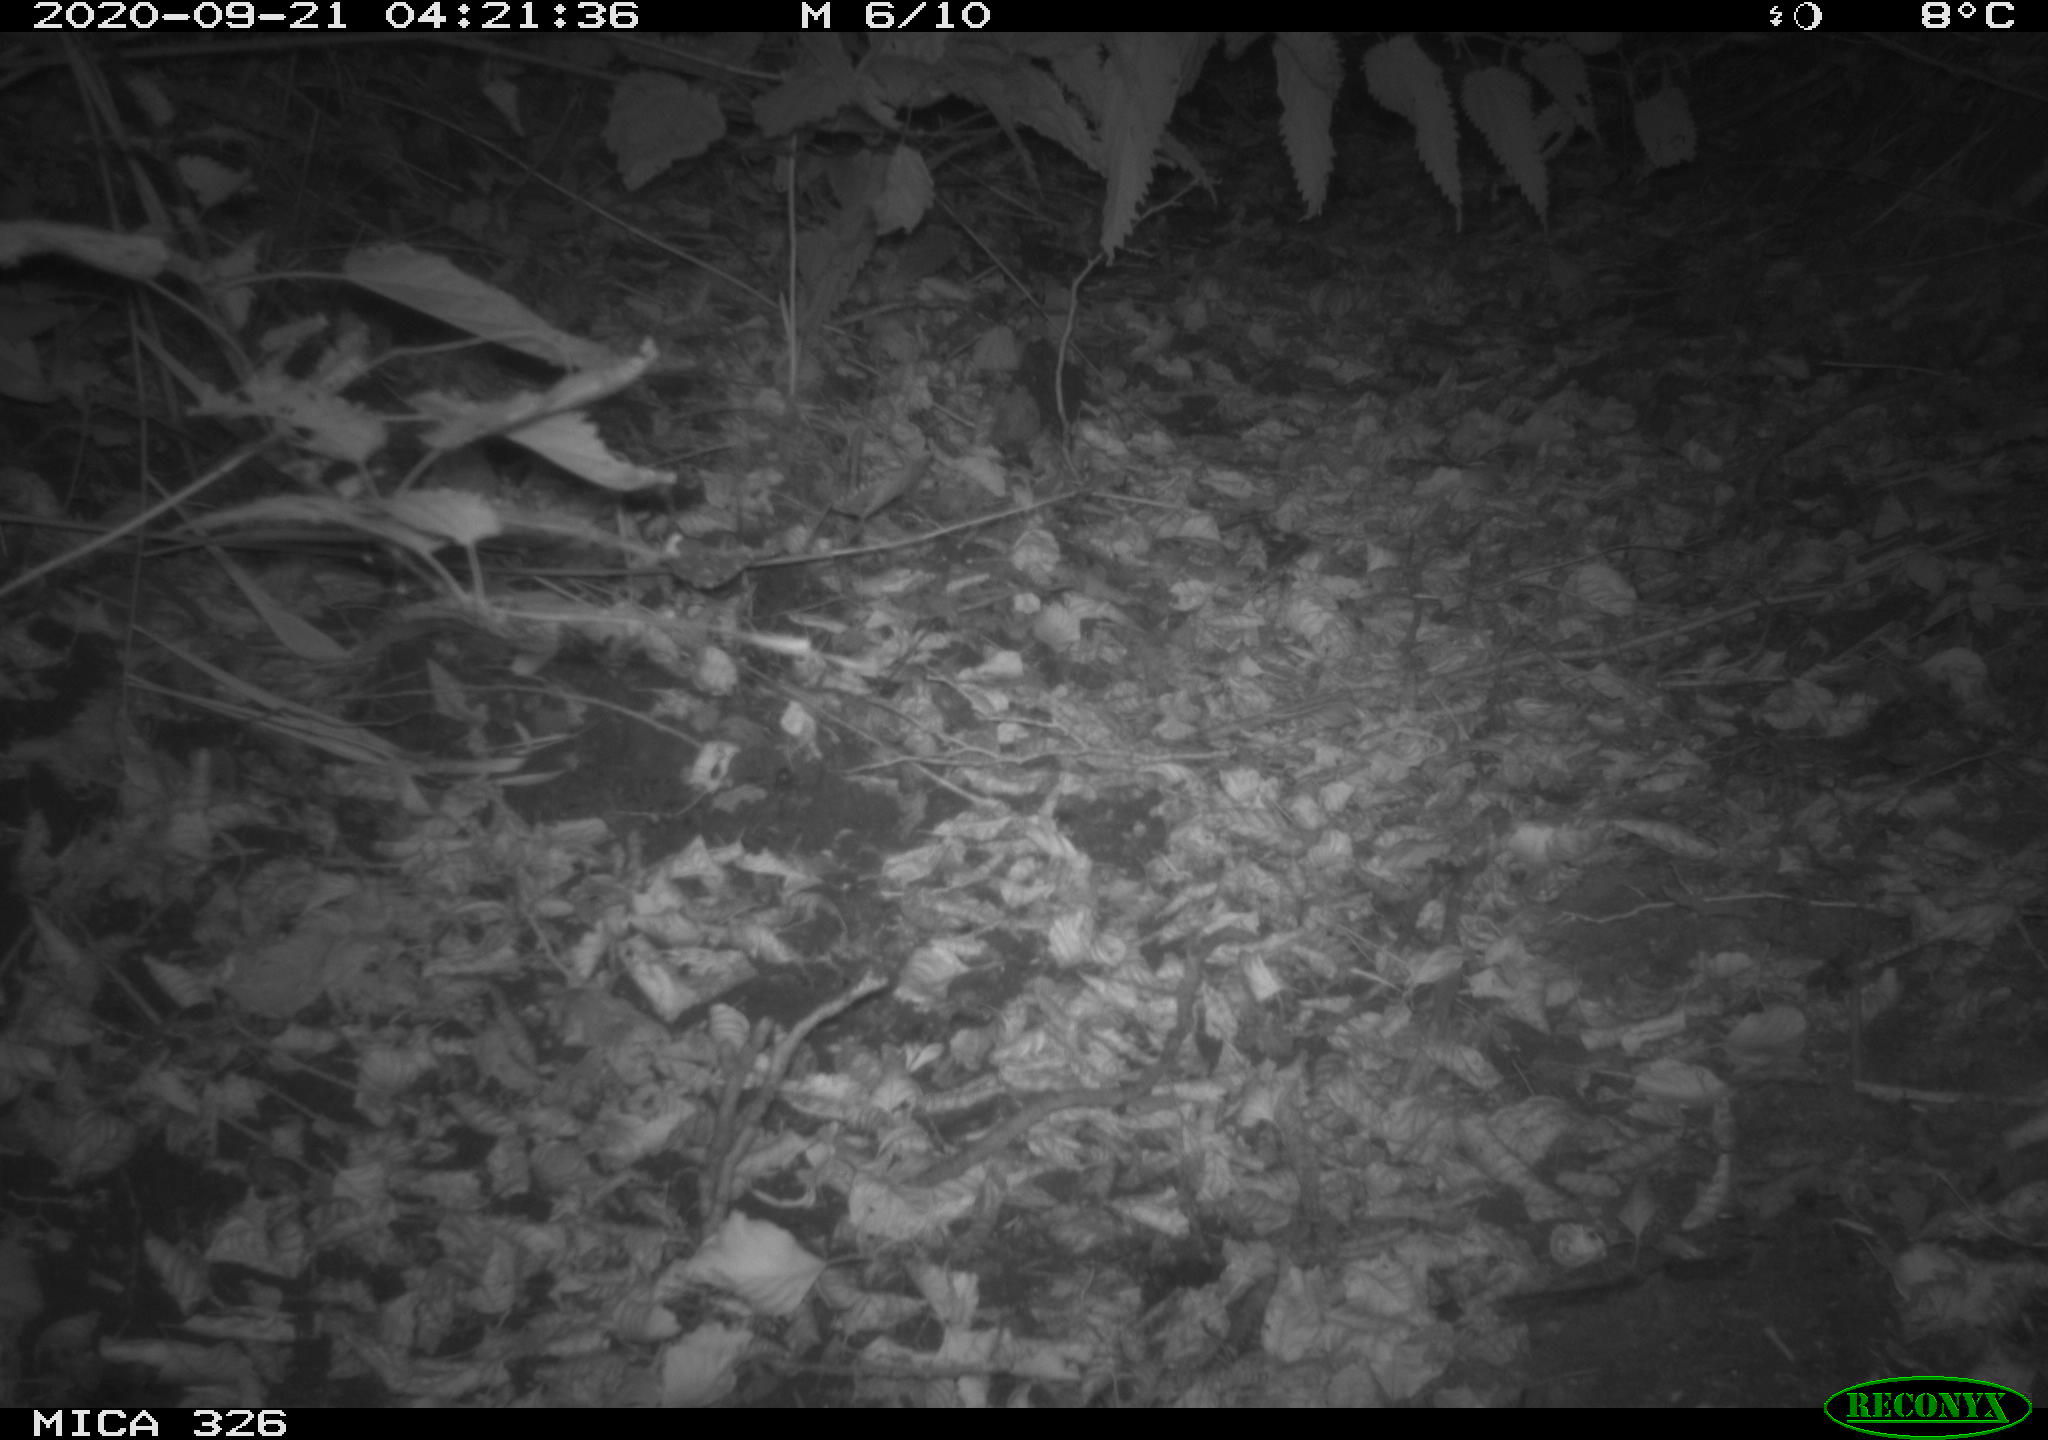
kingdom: Animalia
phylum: Chordata
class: Mammalia
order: Erinaceomorpha
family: Erinaceidae
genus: Erinaceus
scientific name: Erinaceus europaeus
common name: West european hedgehog
